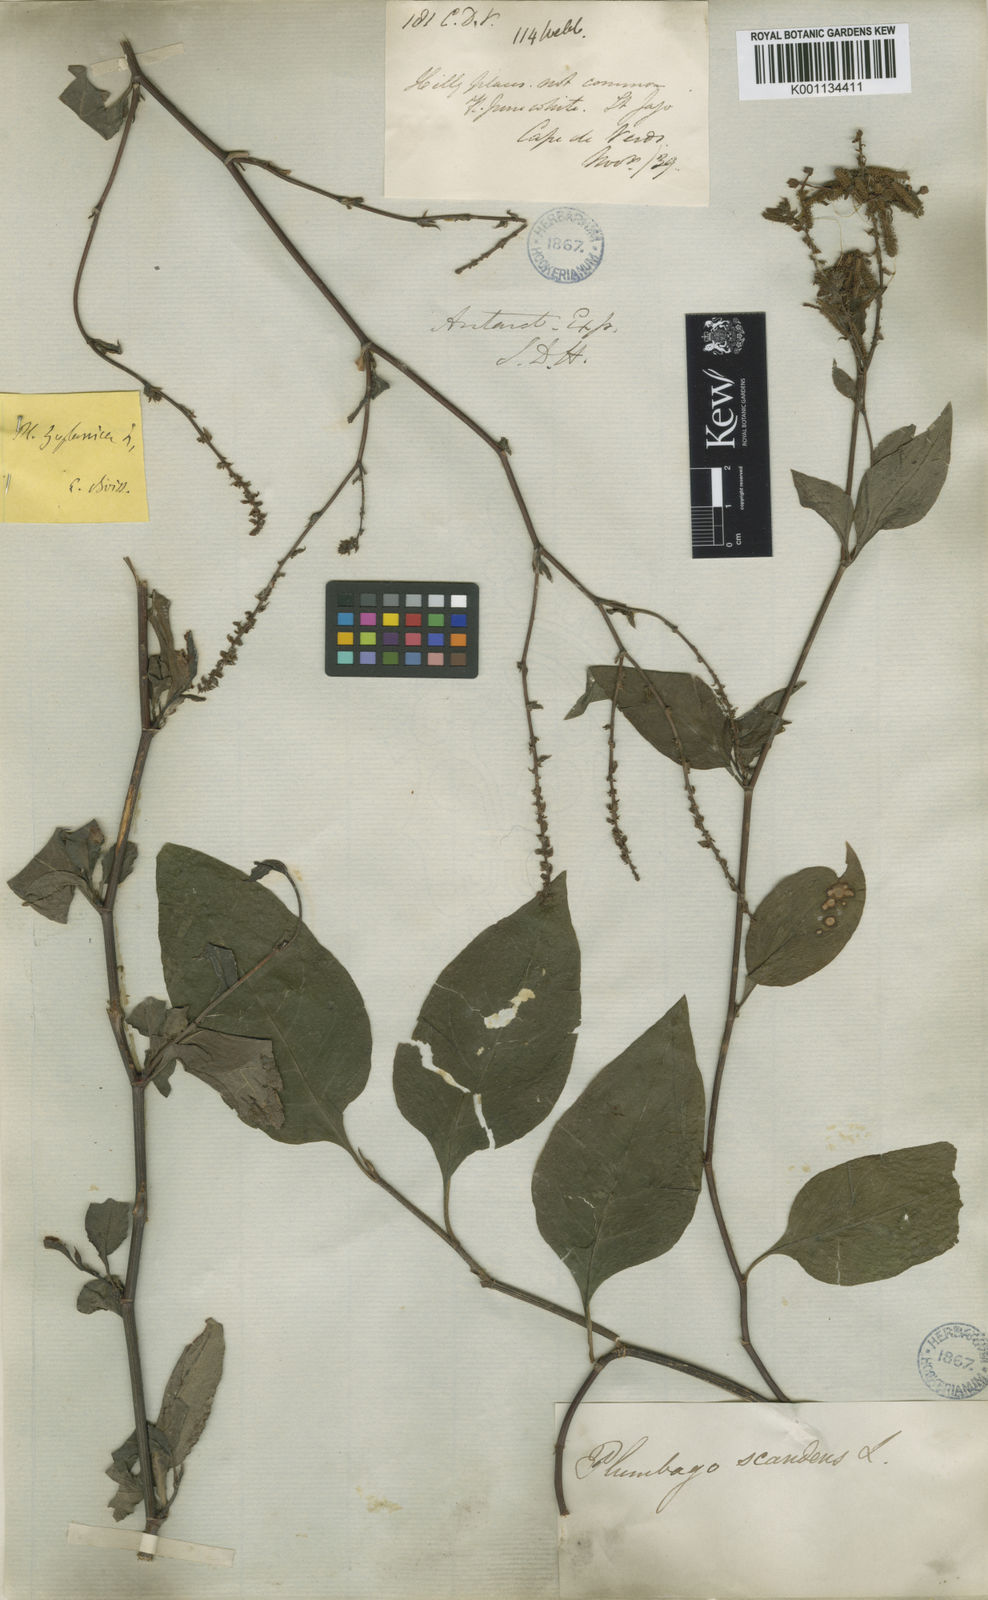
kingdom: Plantae
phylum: Tracheophyta
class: Magnoliopsida
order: Caryophyllales
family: Plumbaginaceae
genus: Plumbago
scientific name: Plumbago
